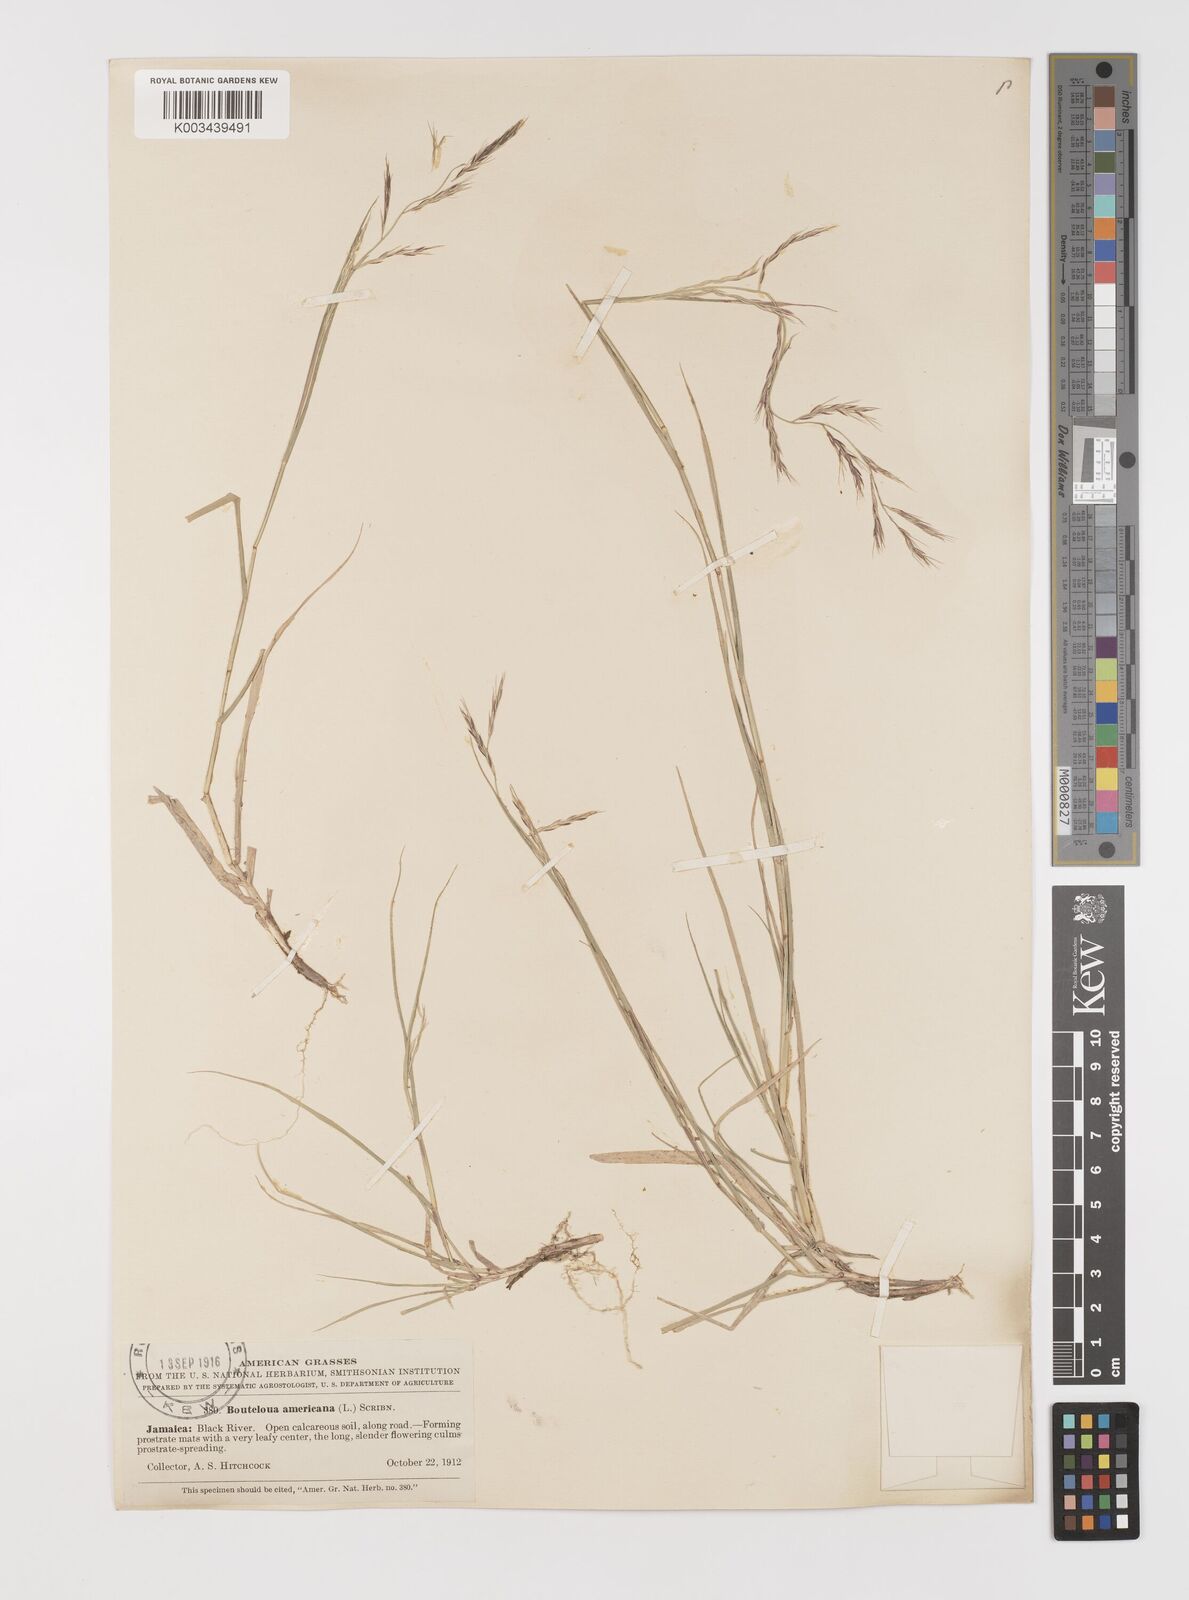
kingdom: Plantae
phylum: Tracheophyta
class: Liliopsida
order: Poales
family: Poaceae
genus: Bouteloua
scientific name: Bouteloua americana
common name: Mule grass
